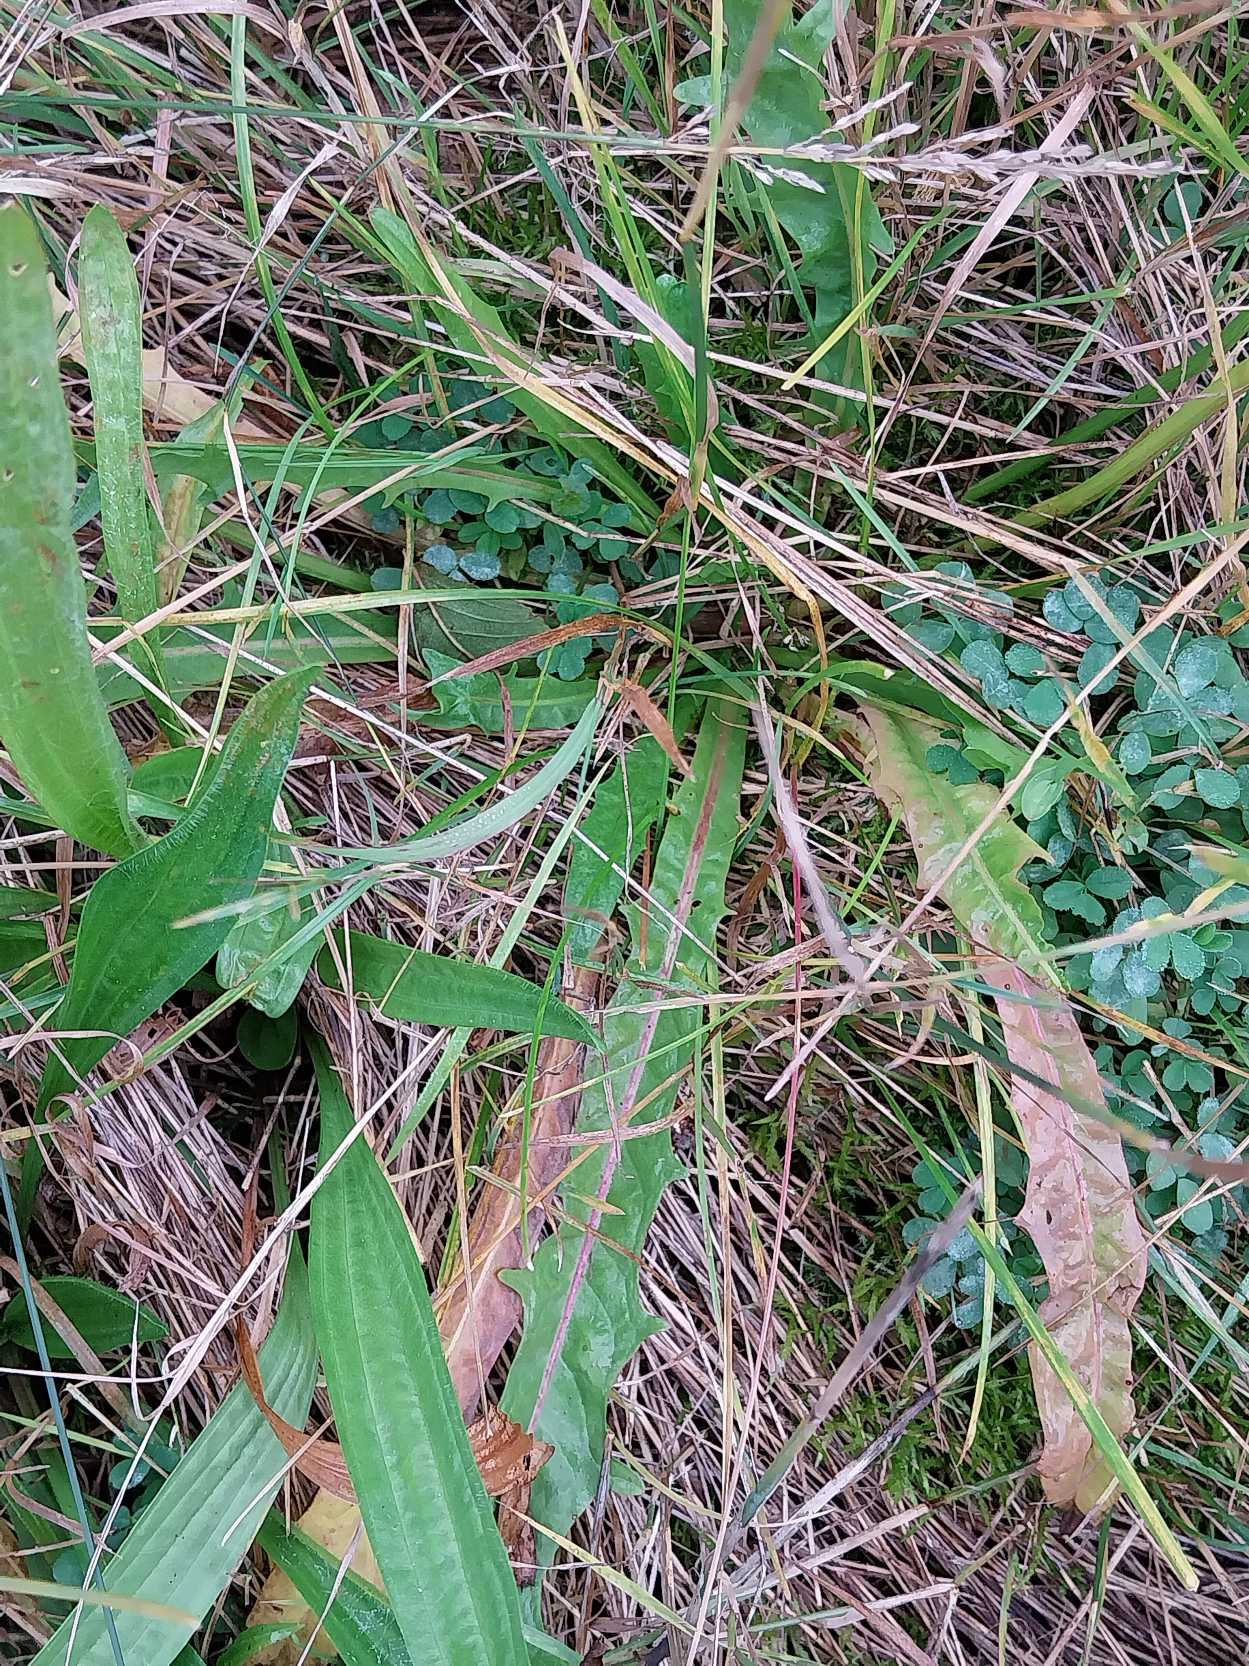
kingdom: Plantae
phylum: Tracheophyta
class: Magnoliopsida
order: Asterales
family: Asteraceae
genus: Scorzoneroides
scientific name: Scorzoneroides autumnalis
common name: Høst-borst
